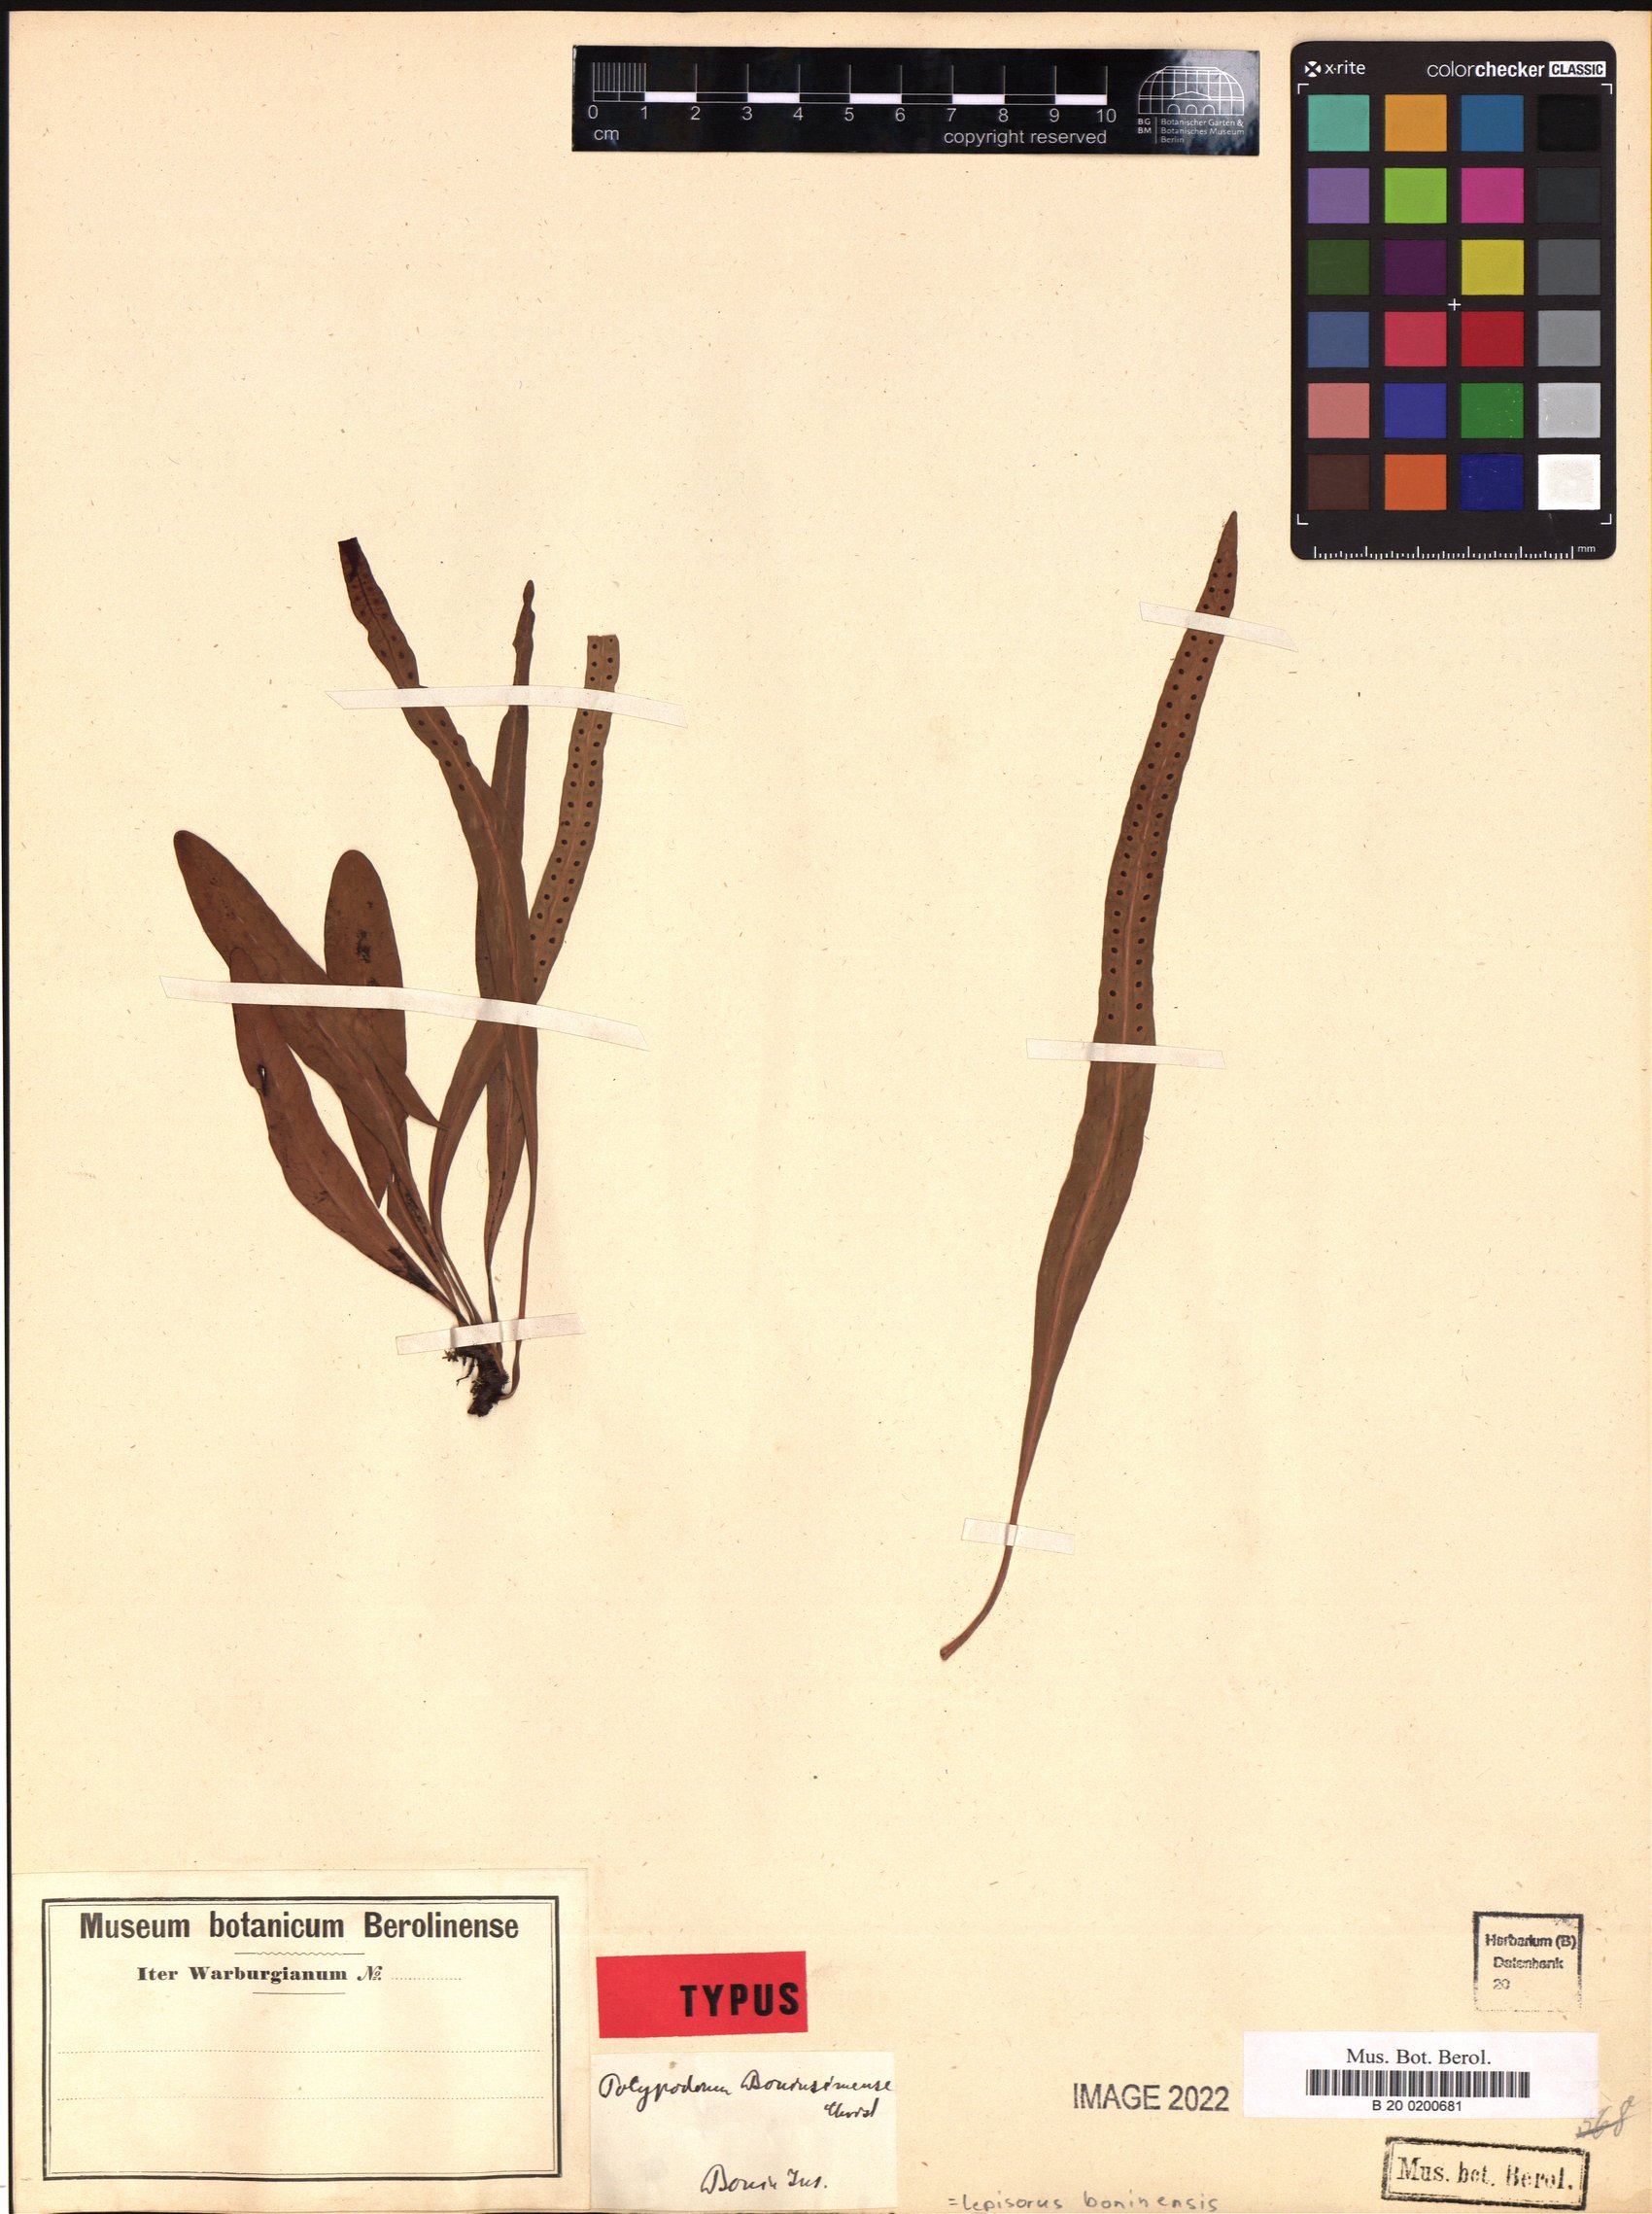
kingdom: Plantae
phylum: Tracheophyta
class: Polypodiopsida
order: Polypodiales
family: Polypodiaceae
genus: Lepisorus
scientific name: Lepisorus boninensis
